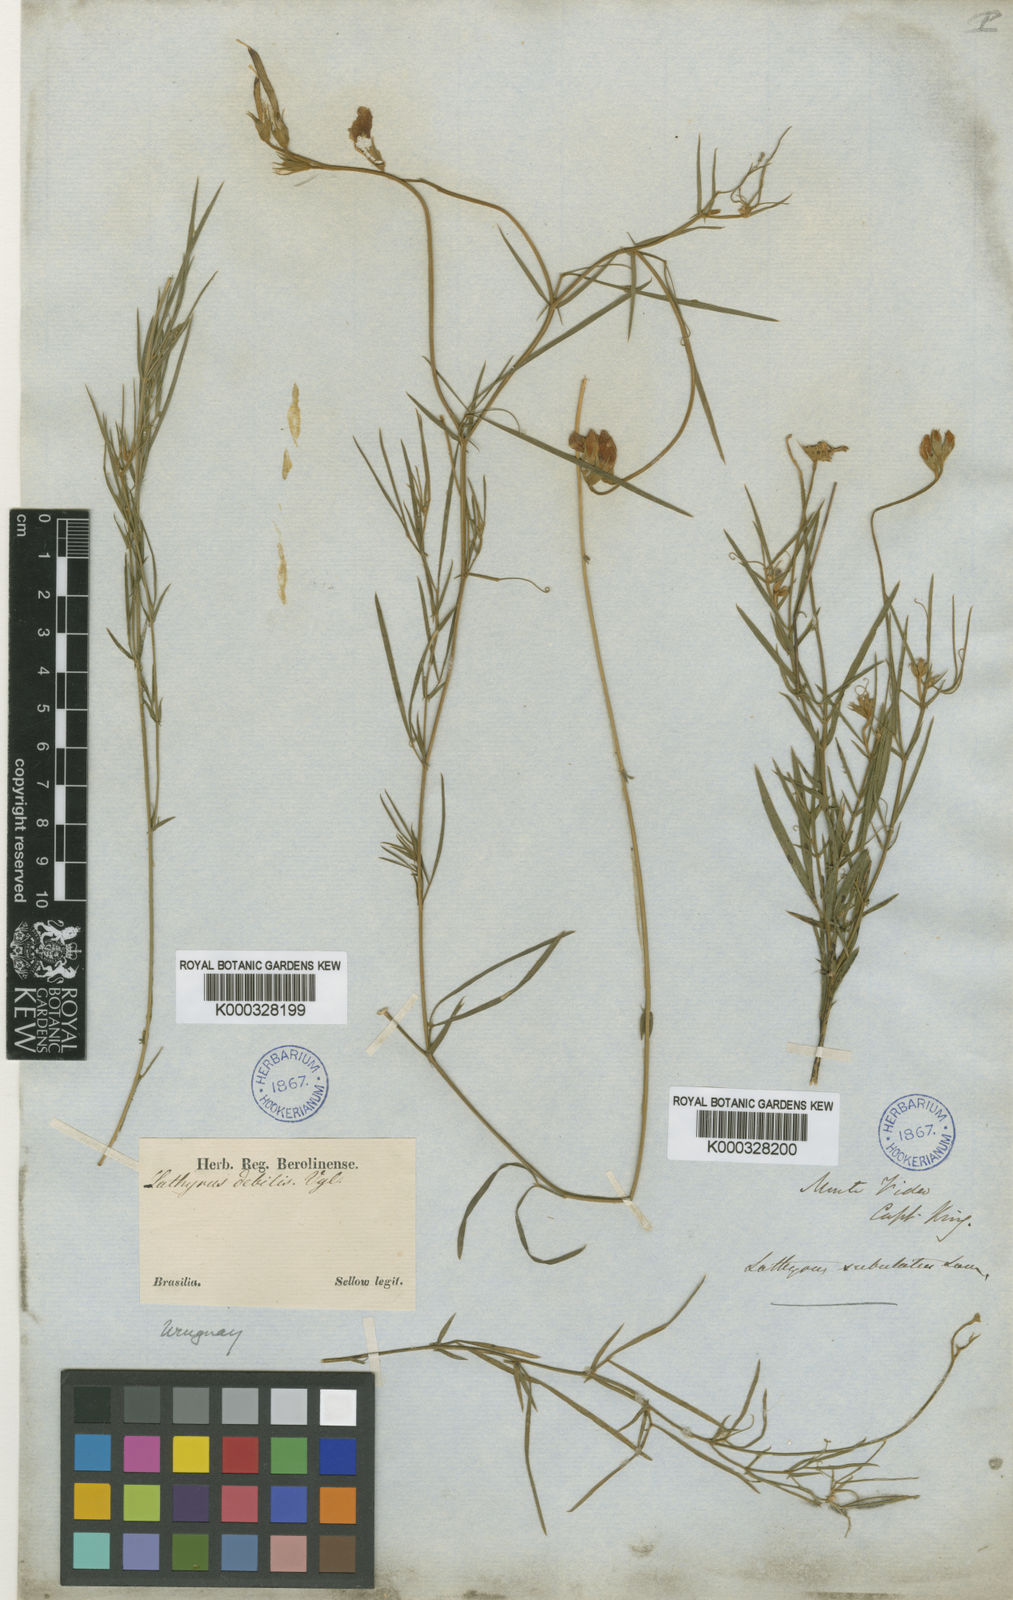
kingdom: Plantae
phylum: Tracheophyta
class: Magnoliopsida
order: Fabales
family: Fabaceae
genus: Lathyrus
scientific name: Lathyrus subulatus
